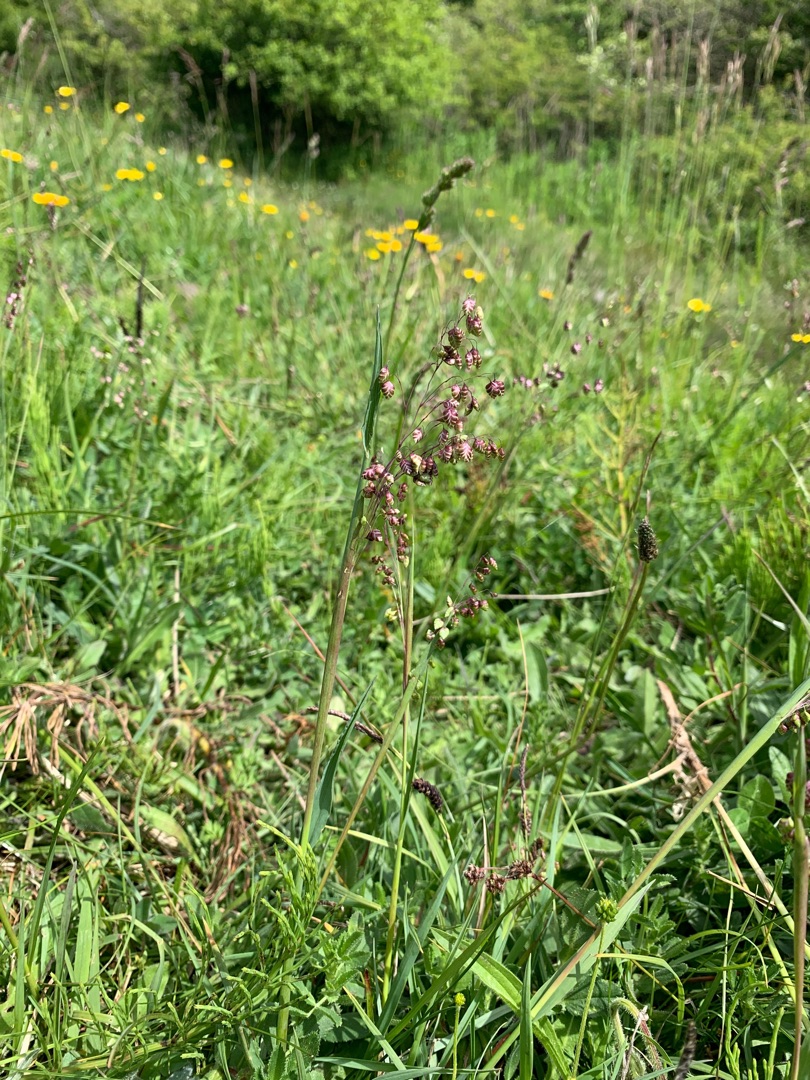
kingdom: Plantae
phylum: Tracheophyta
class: Liliopsida
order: Poales
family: Poaceae
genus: Briza
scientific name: Briza media
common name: Hjertegræs
